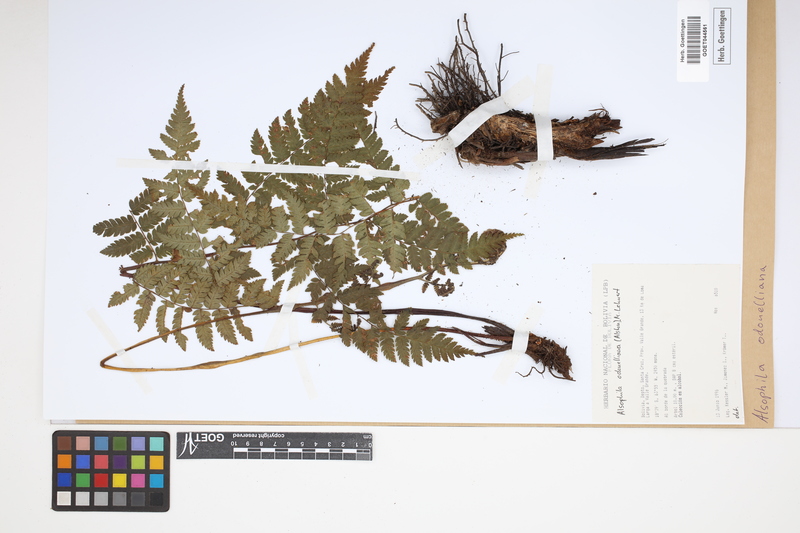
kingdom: Plantae
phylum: Tracheophyta
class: Polypodiopsida
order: Cyatheales
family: Cyatheaceae
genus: Alsophila
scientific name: Alsophila odonelliana
